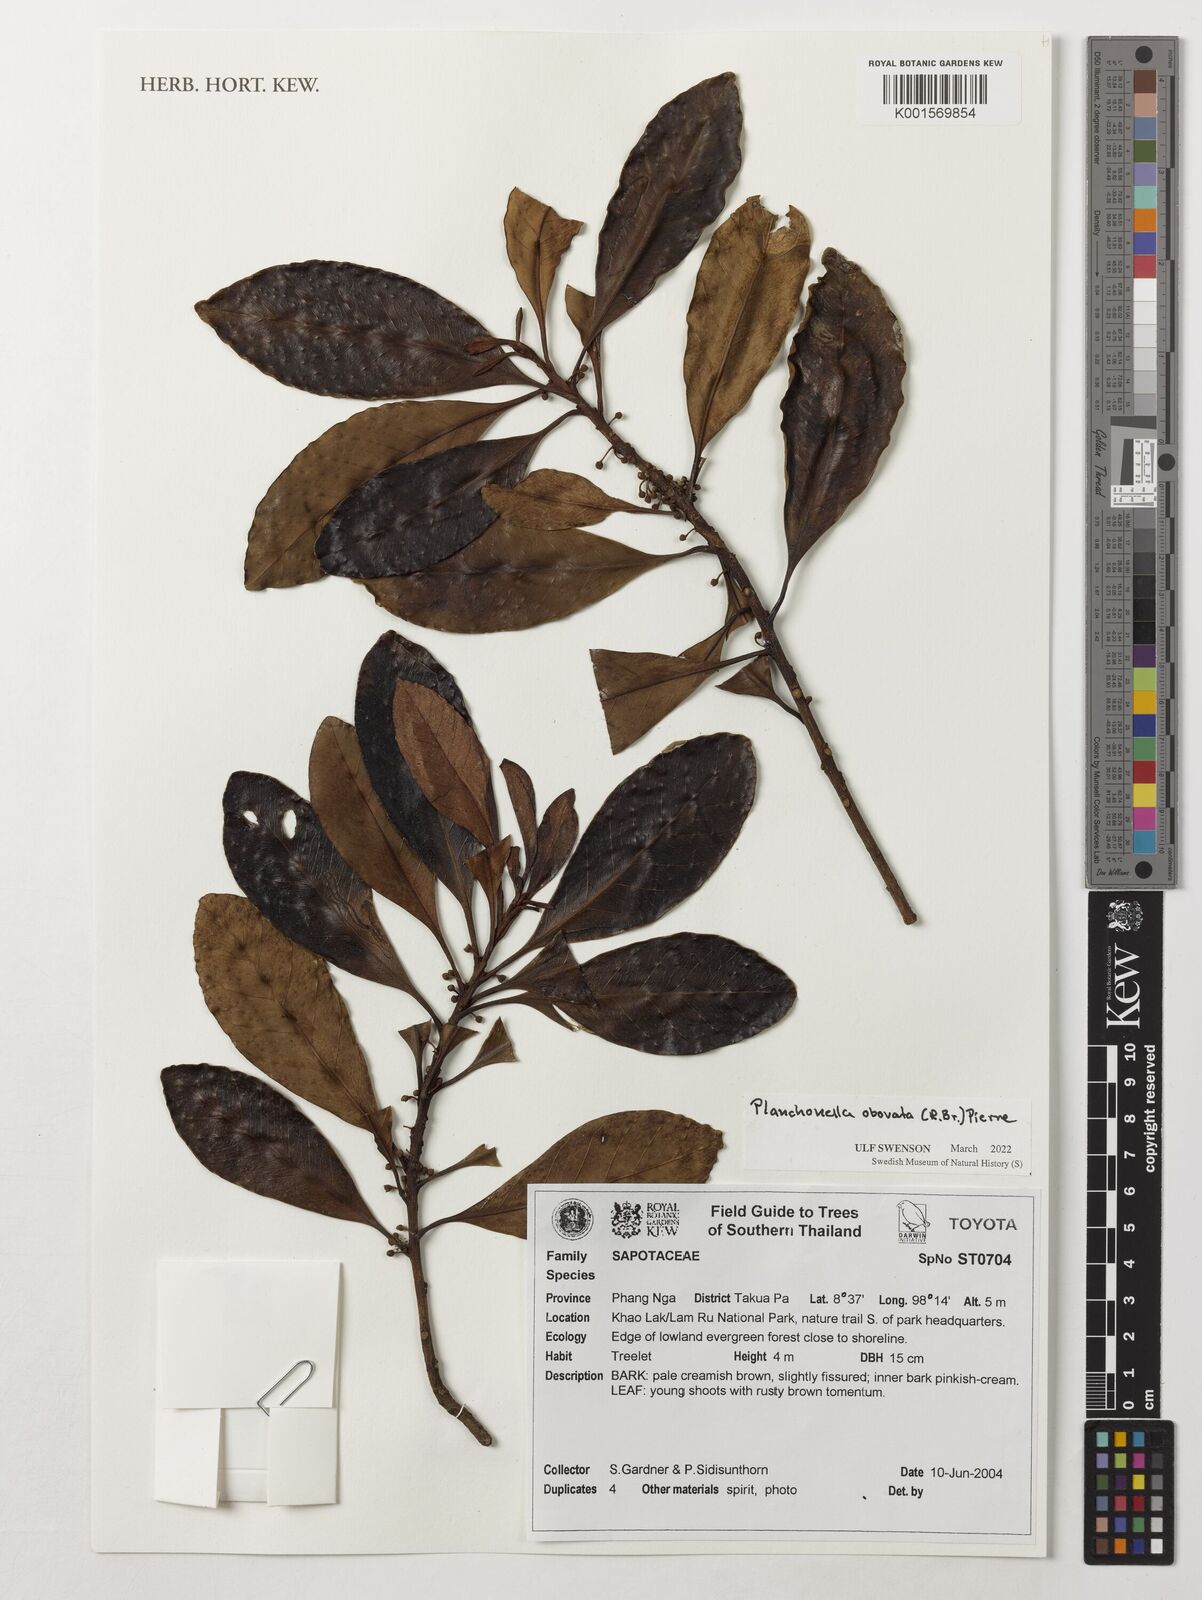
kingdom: Plantae
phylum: Tracheophyta
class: Magnoliopsida
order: Ericales
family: Sapotaceae
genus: Planchonella
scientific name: Planchonella obovata
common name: Black-ash
